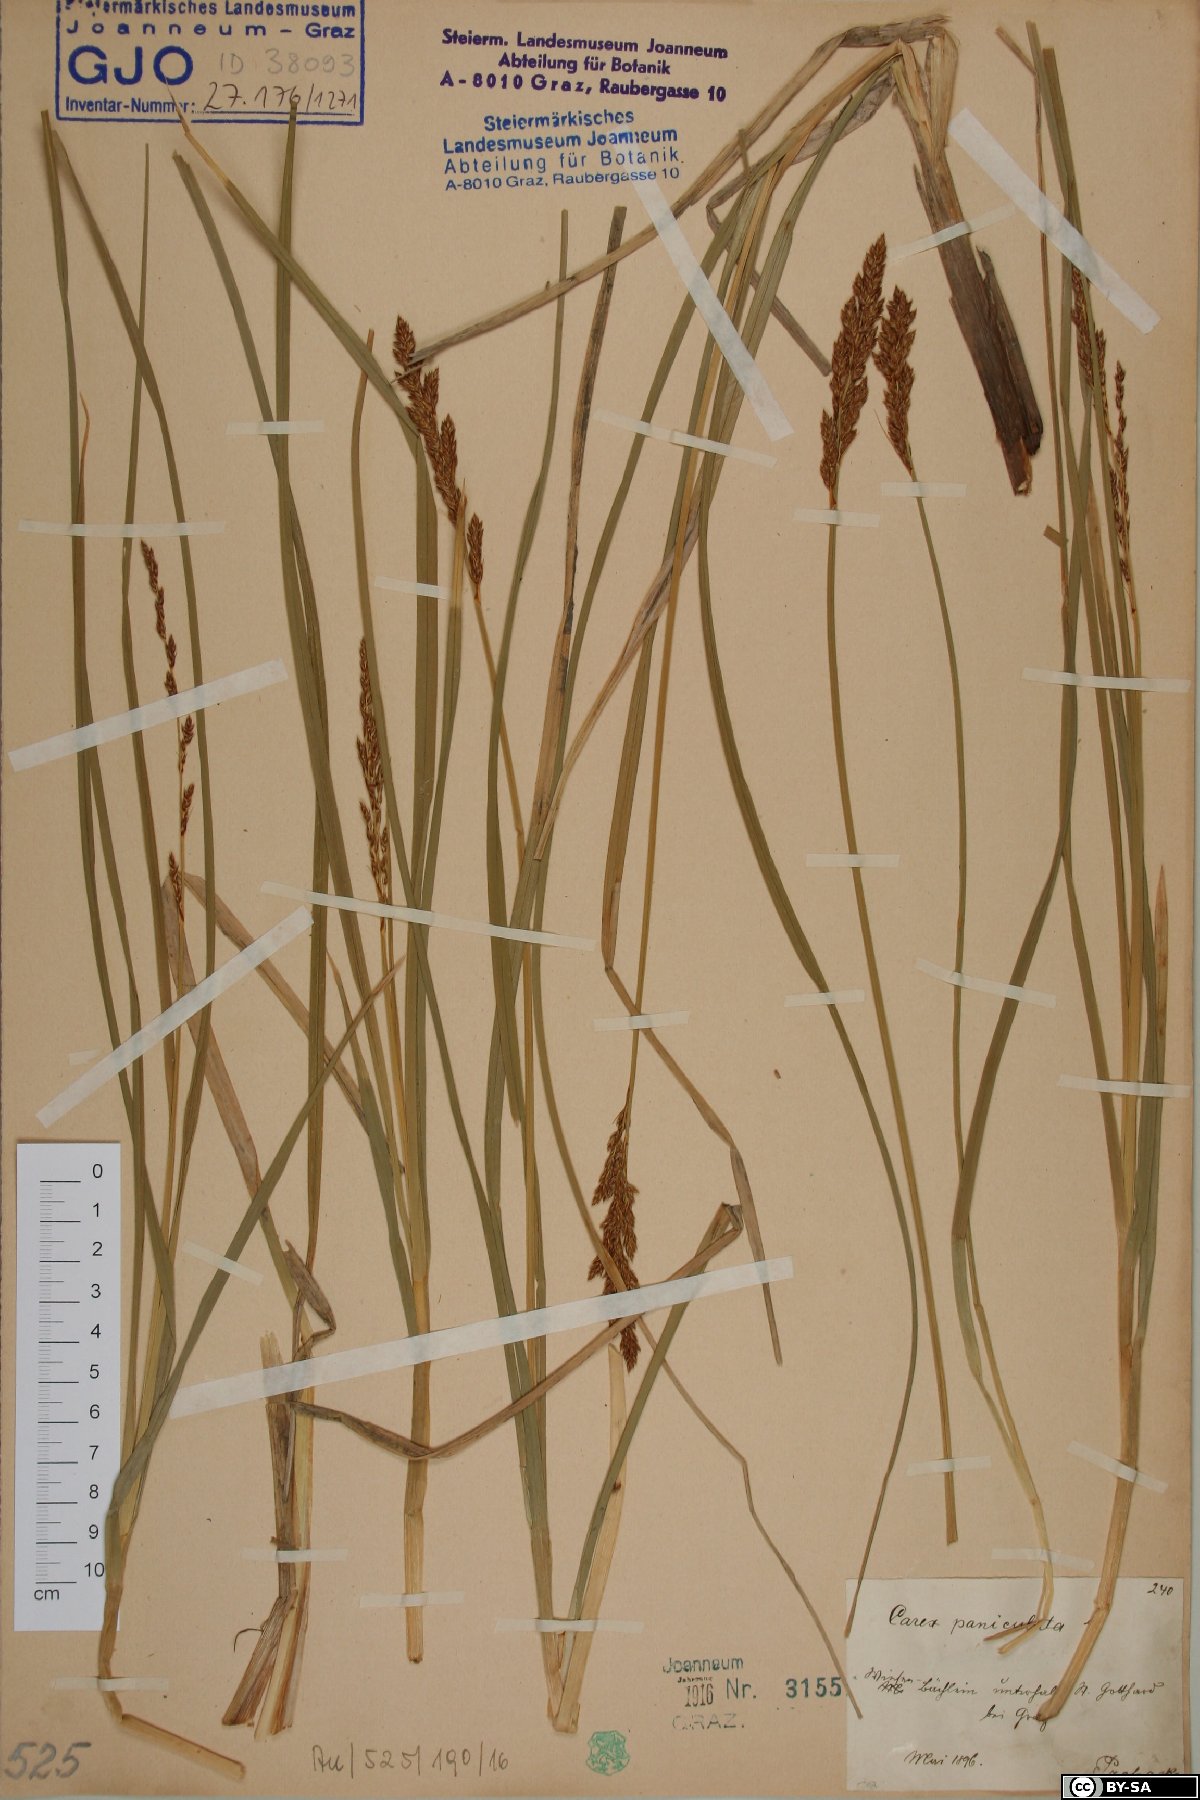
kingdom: Plantae
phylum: Tracheophyta
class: Liliopsida
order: Poales
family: Cyperaceae
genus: Carex
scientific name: Carex paniculata
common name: Greater tussock-sedge
